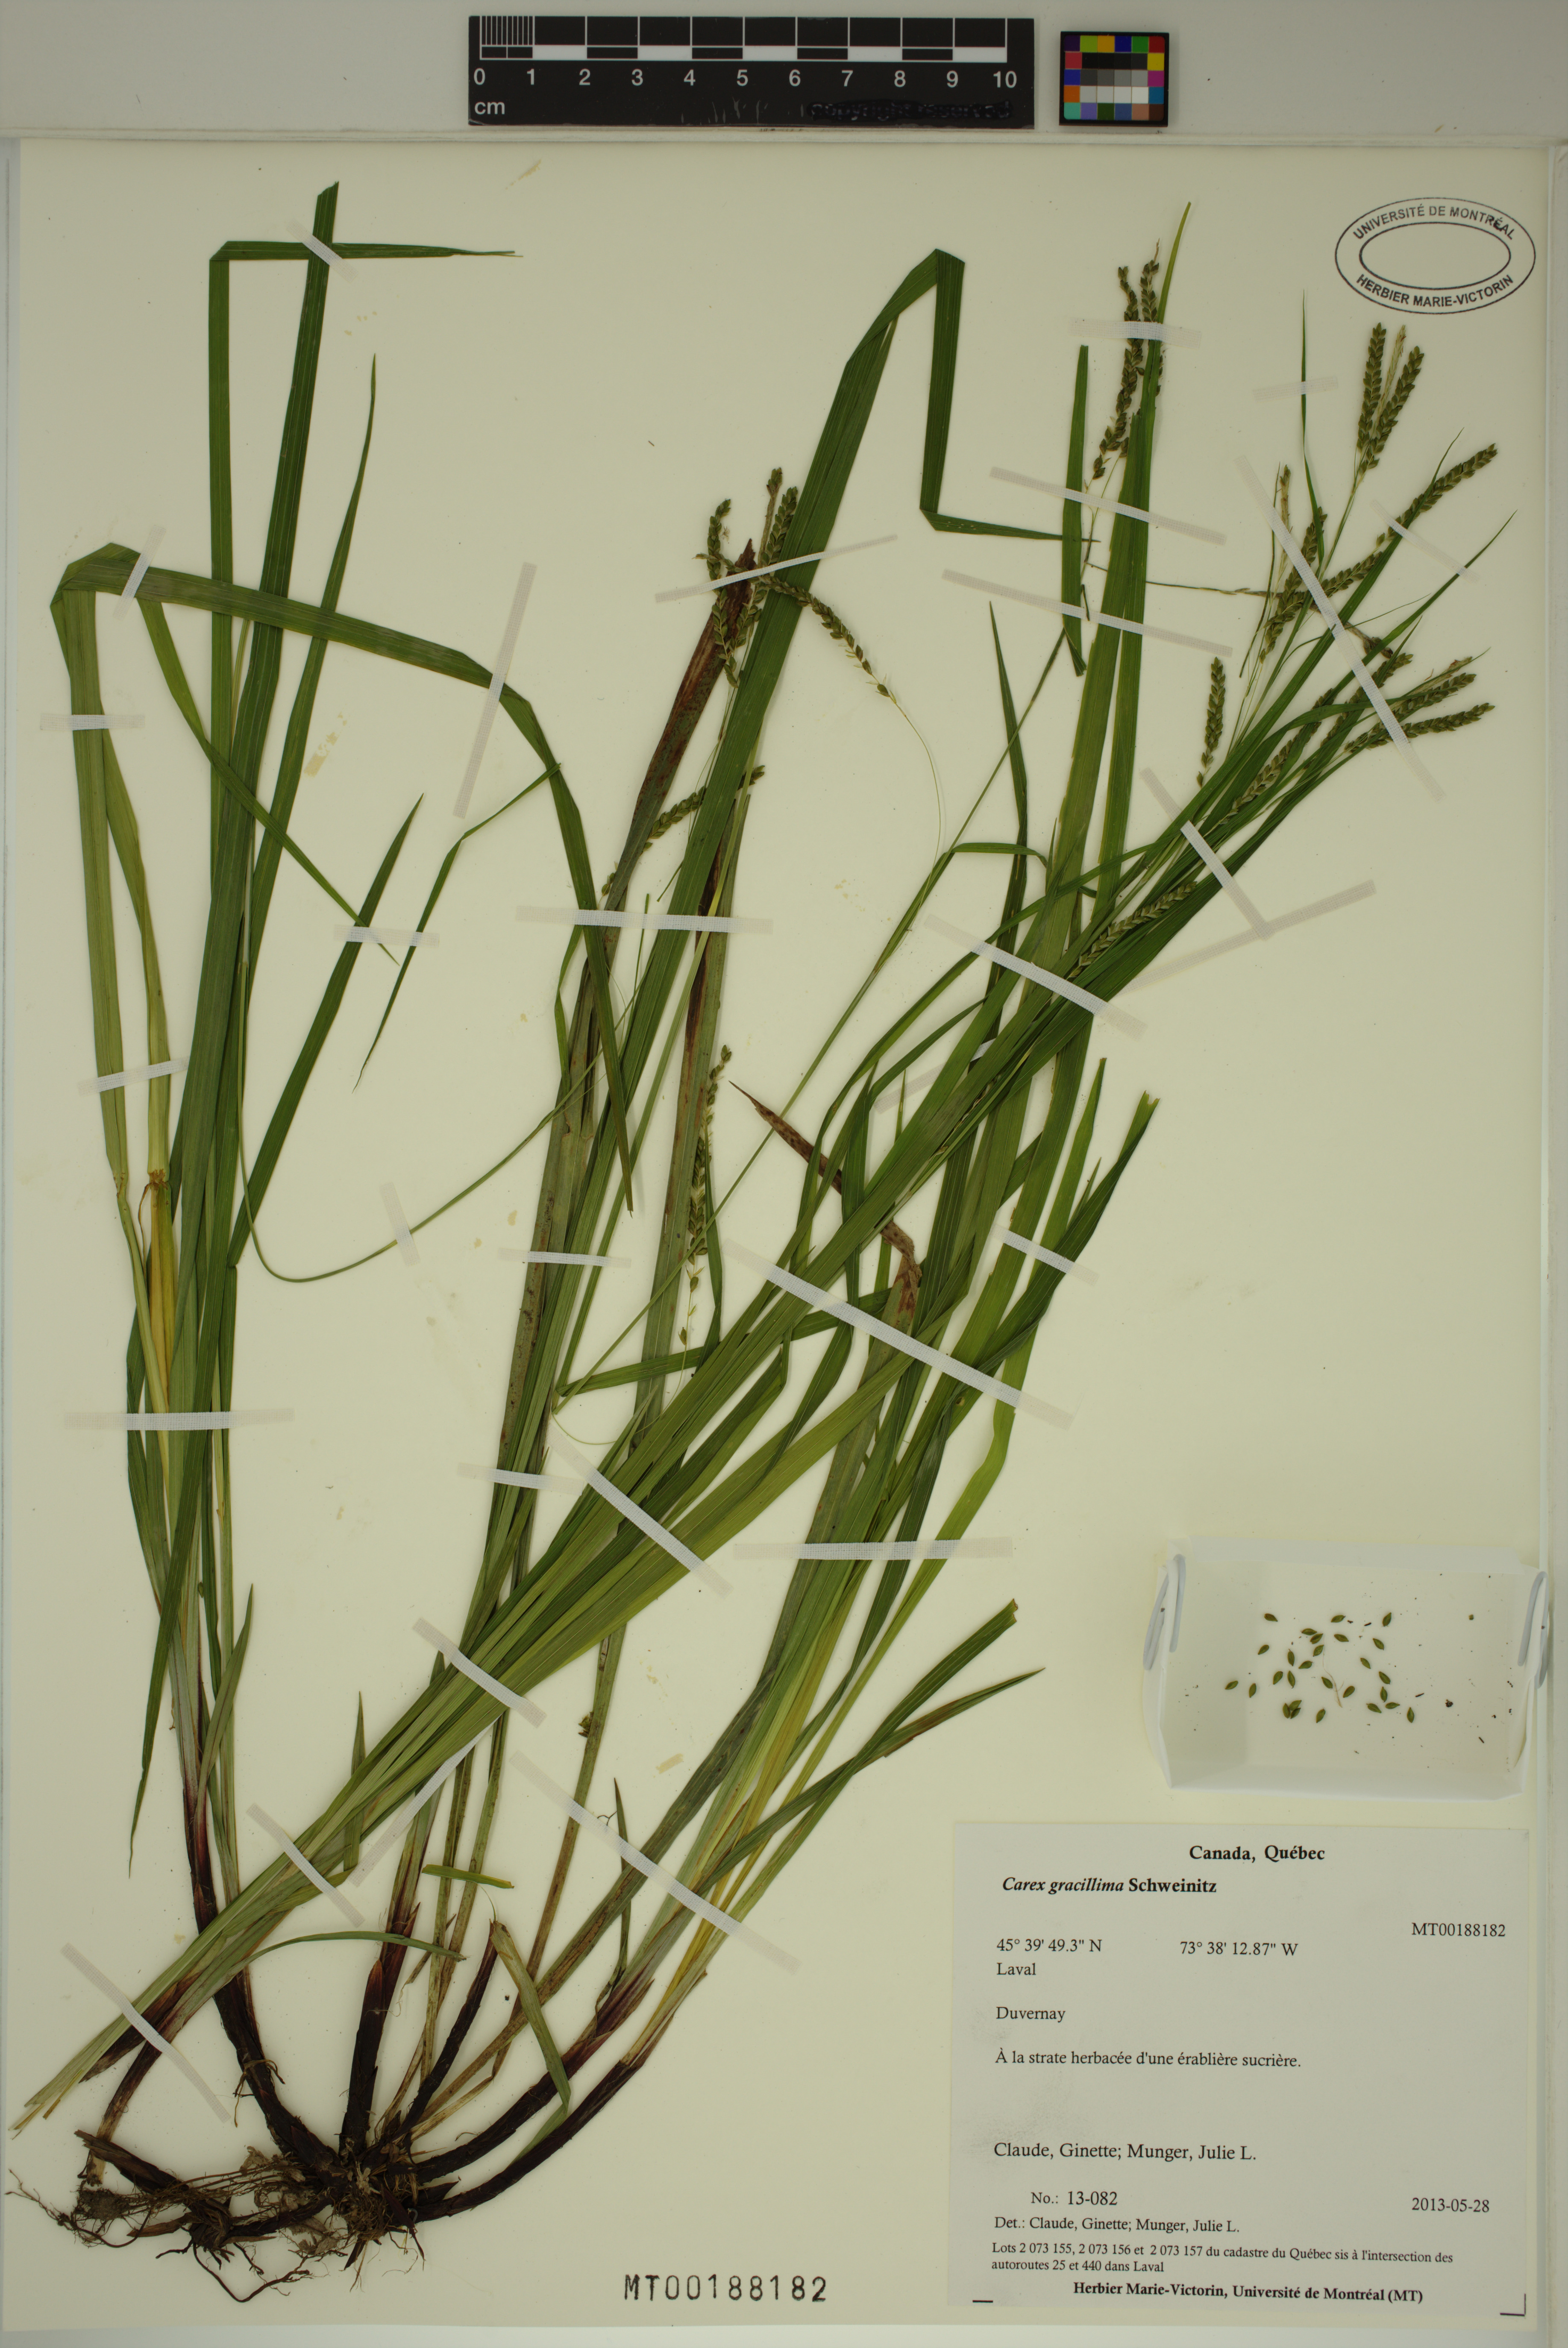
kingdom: Plantae
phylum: Tracheophyta
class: Liliopsida
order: Poales
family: Cyperaceae
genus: Carex
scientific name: Carex gracillima
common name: Graceful sedge
